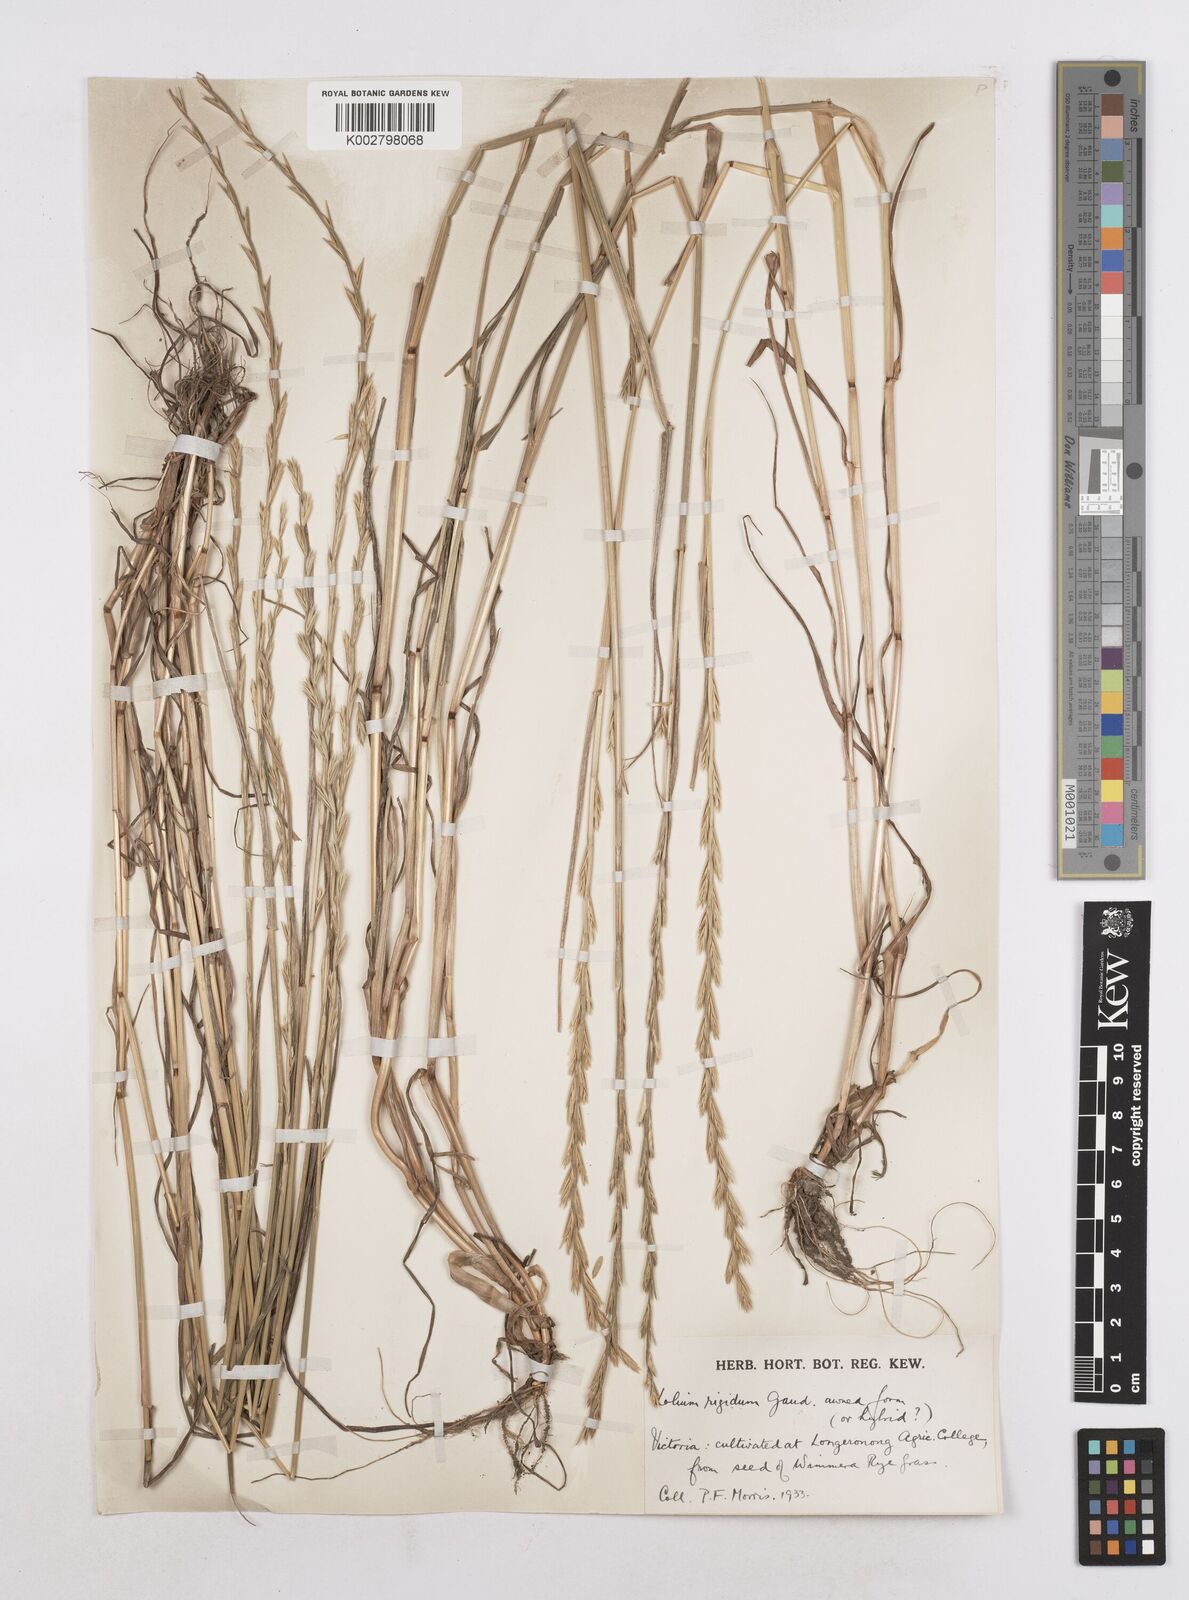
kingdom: Plantae
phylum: Tracheophyta
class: Liliopsida
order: Poales
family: Poaceae
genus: Lolium
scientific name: Lolium rigidum
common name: Wimmera ryegrass
